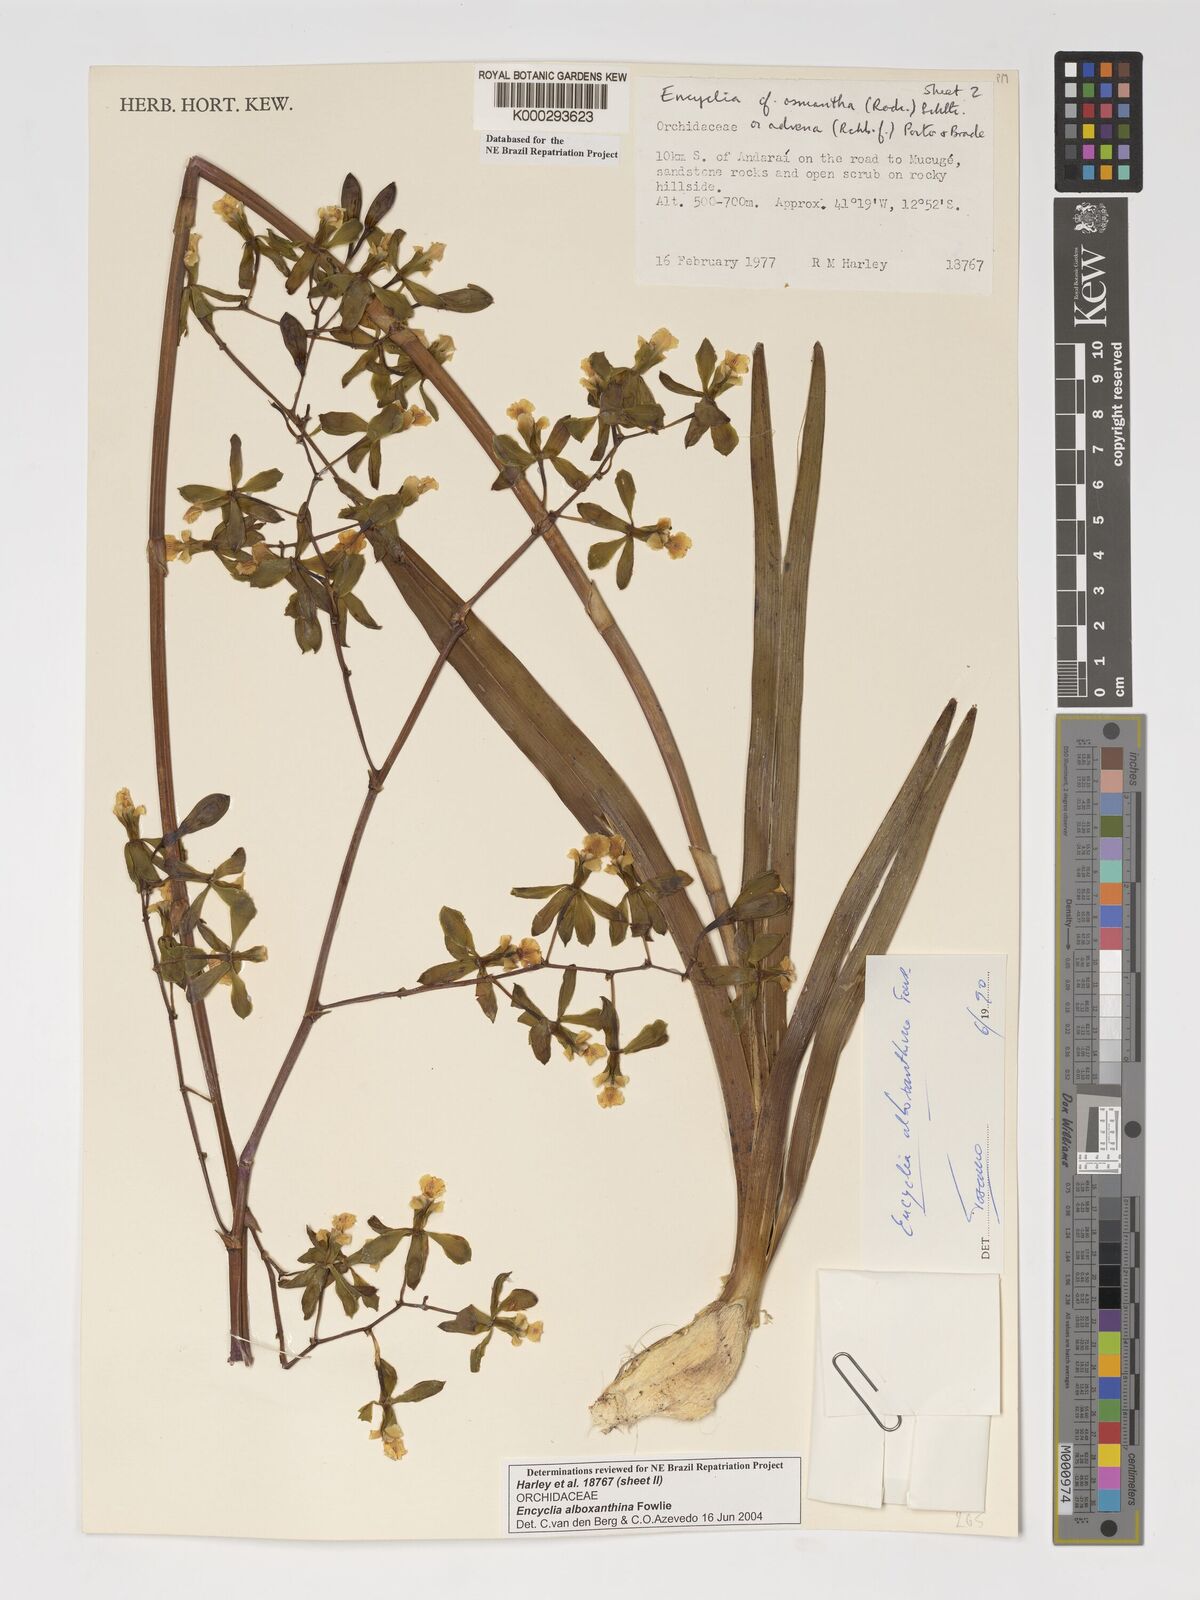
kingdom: Plantae
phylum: Tracheophyta
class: Liliopsida
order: Asparagales
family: Orchidaceae
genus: Encyclia
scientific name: Encyclia alboxanthina
